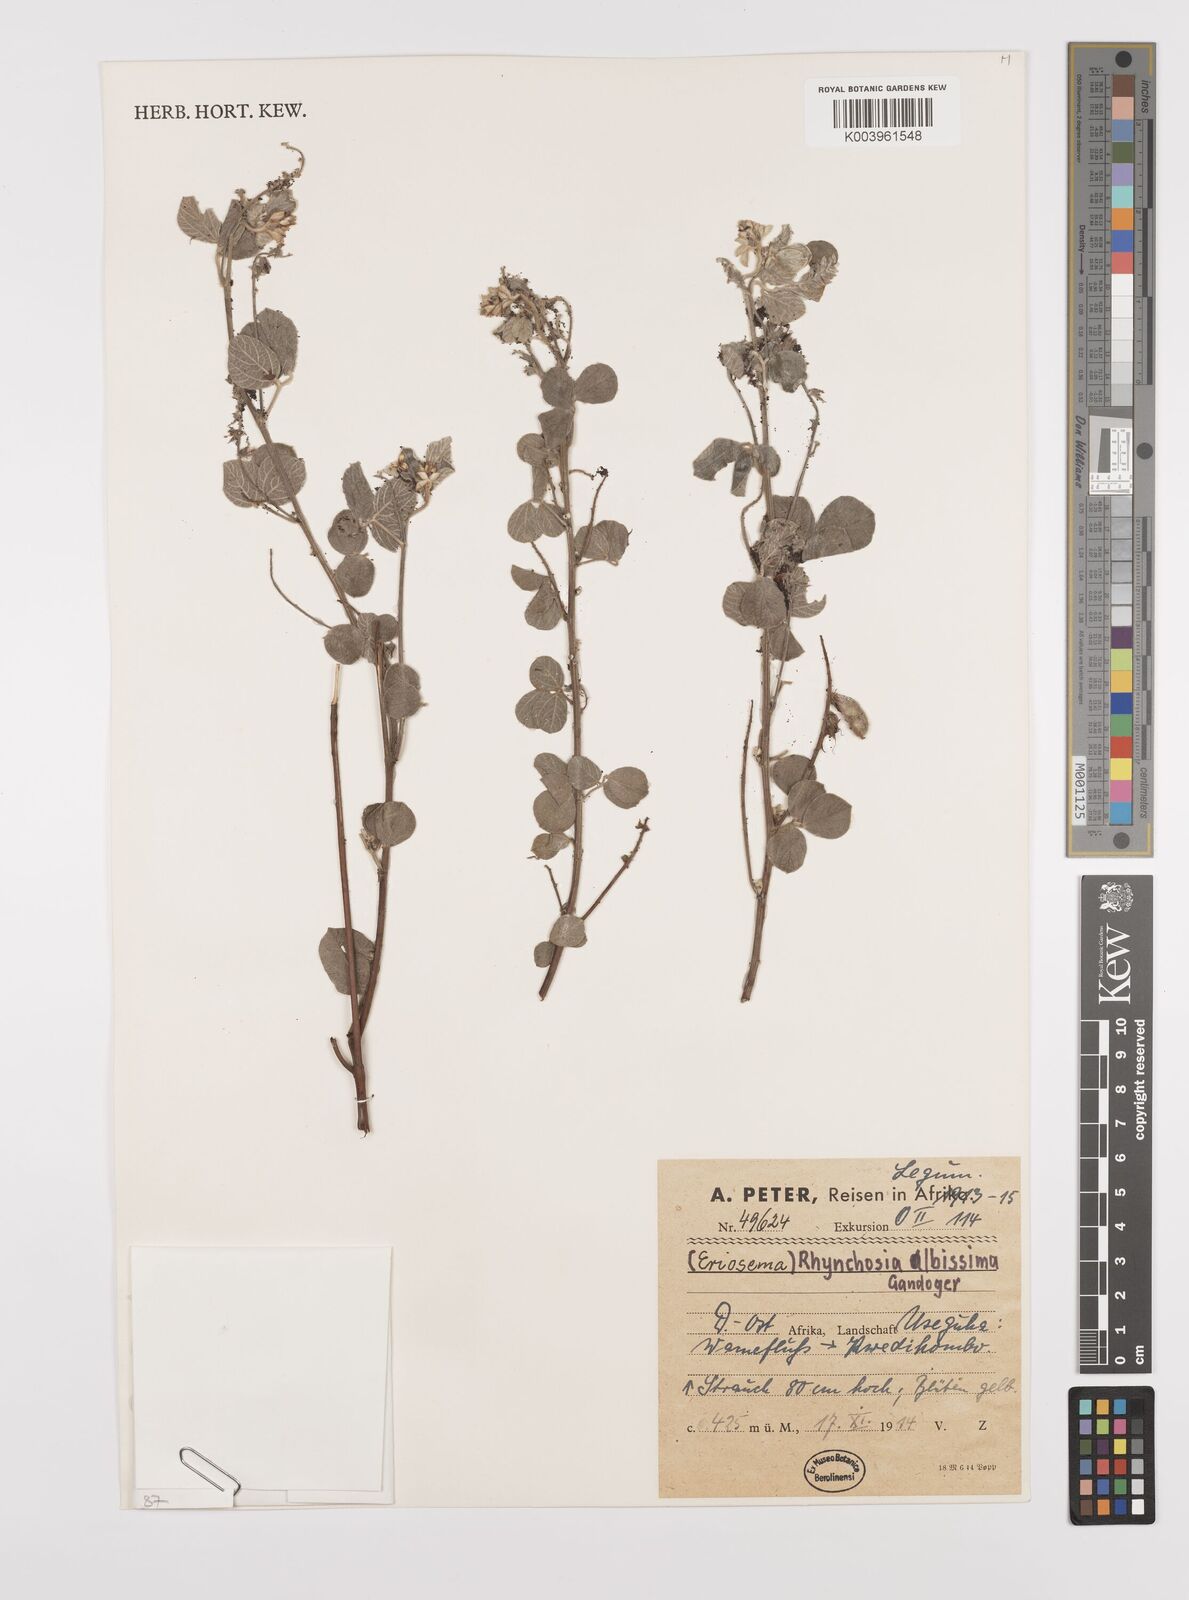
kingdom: Plantae
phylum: Tracheophyta
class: Magnoliopsida
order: Fabales
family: Fabaceae
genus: Rhynchosia
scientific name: Rhynchosia albissima
